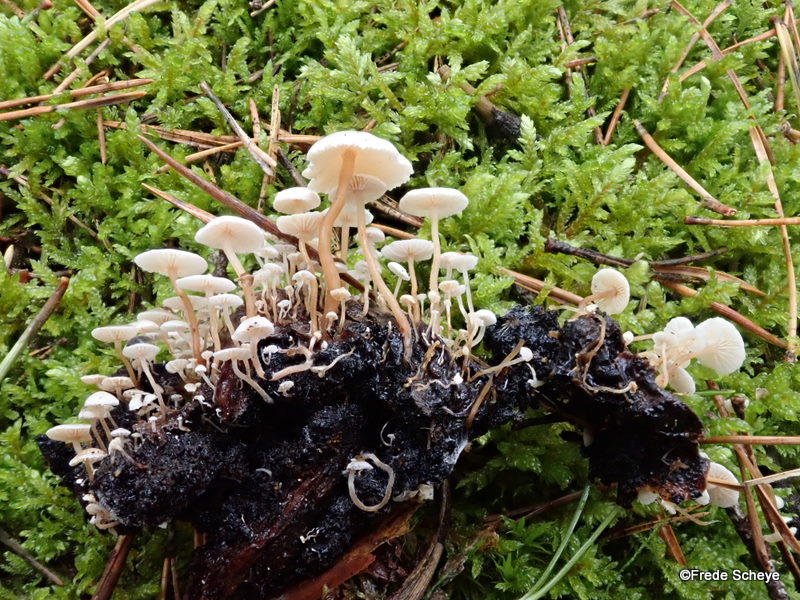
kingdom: Fungi
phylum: Basidiomycota
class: Agaricomycetes
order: Agaricales
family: Tricholomataceae
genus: Collybia
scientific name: Collybia cirrhata
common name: silke-lighat
